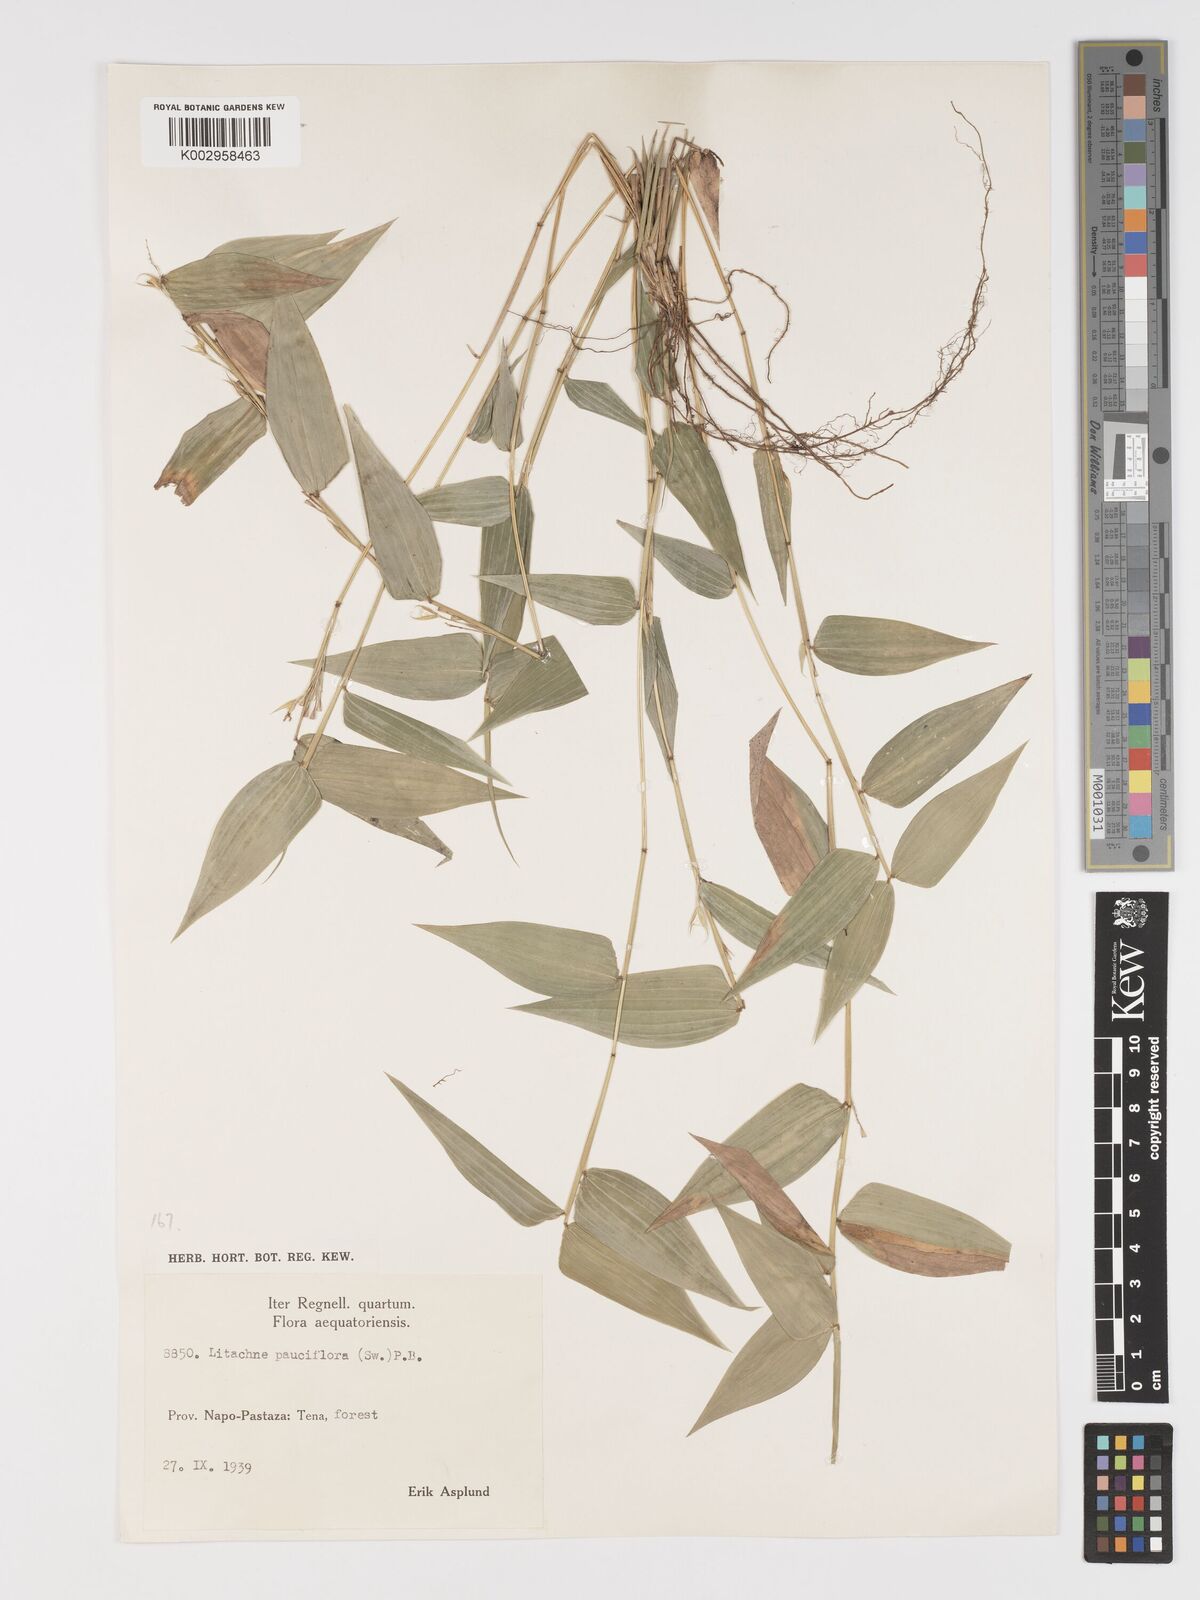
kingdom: Plantae
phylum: Tracheophyta
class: Liliopsida
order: Poales
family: Poaceae
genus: Lithachne
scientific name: Lithachne pauciflora
